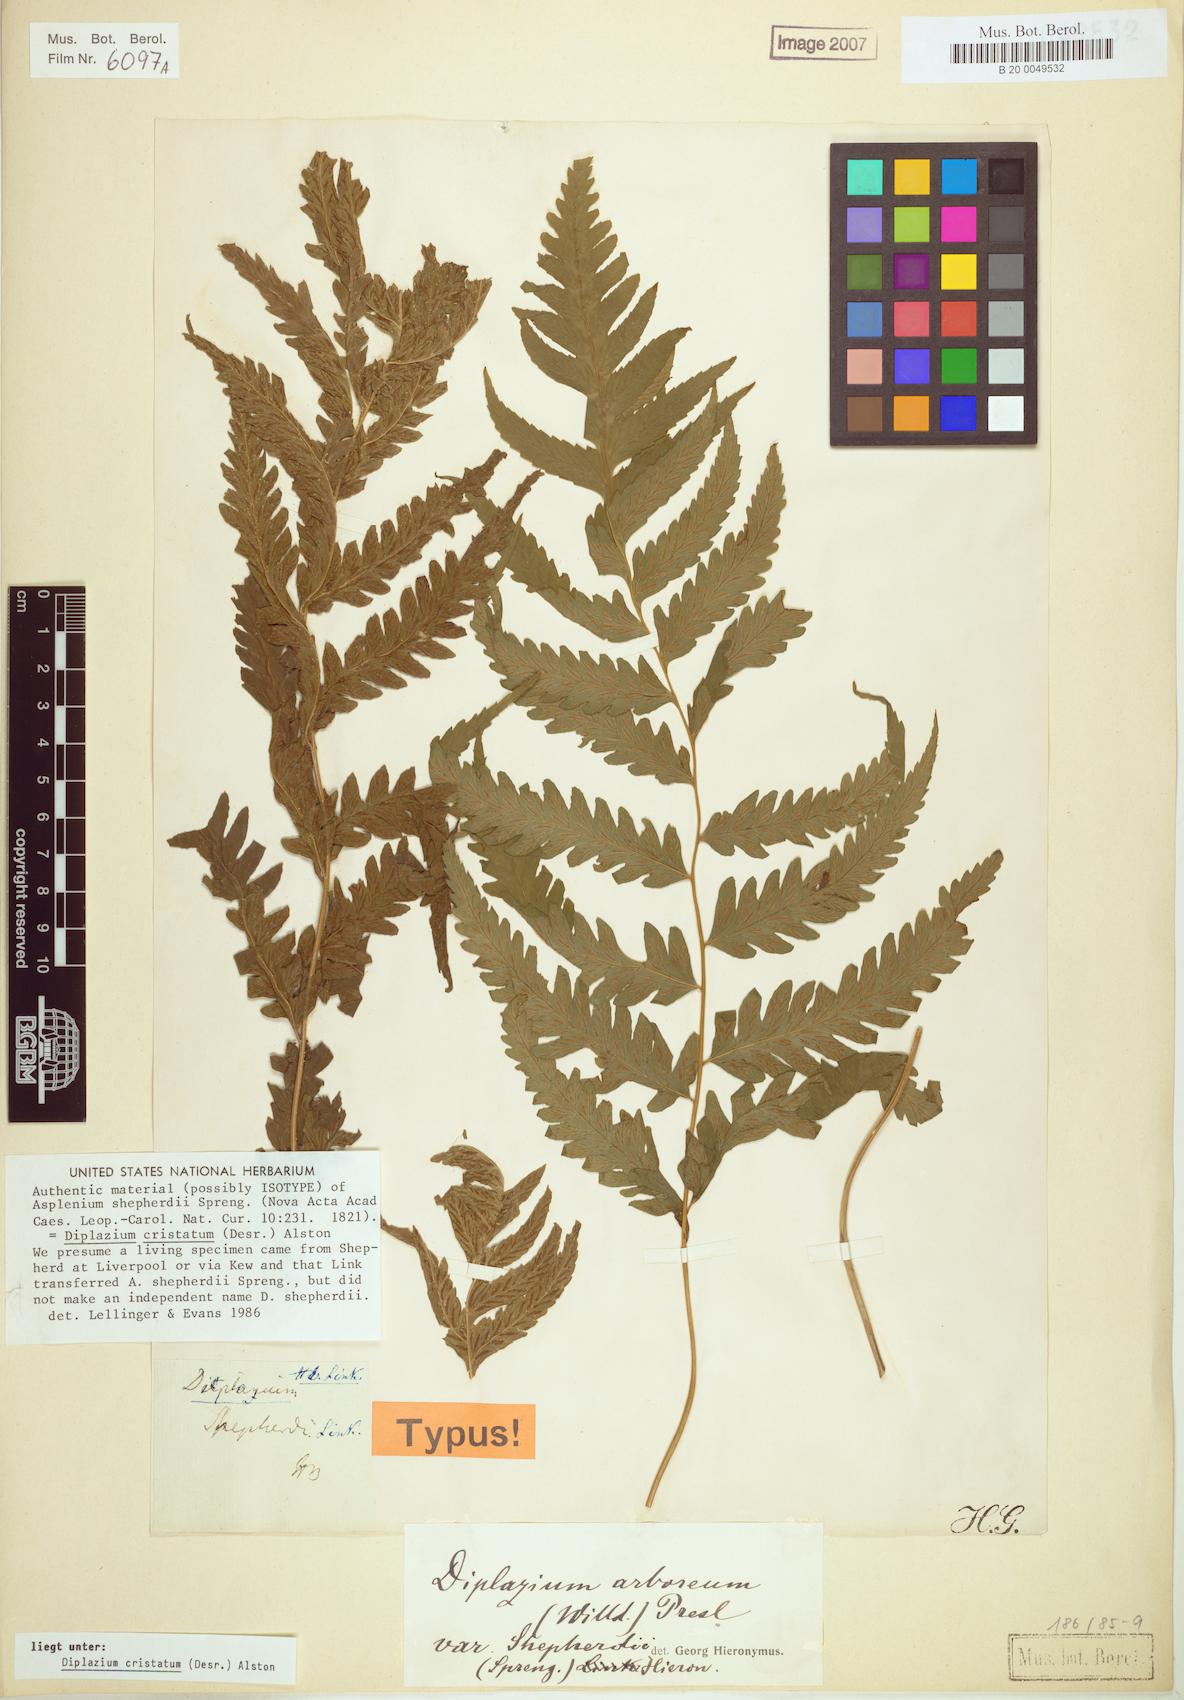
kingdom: Plantae
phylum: Tracheophyta
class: Polypodiopsida
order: Polypodiales
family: Athyriaceae
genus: Diplazium
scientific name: Diplazium cristatum
